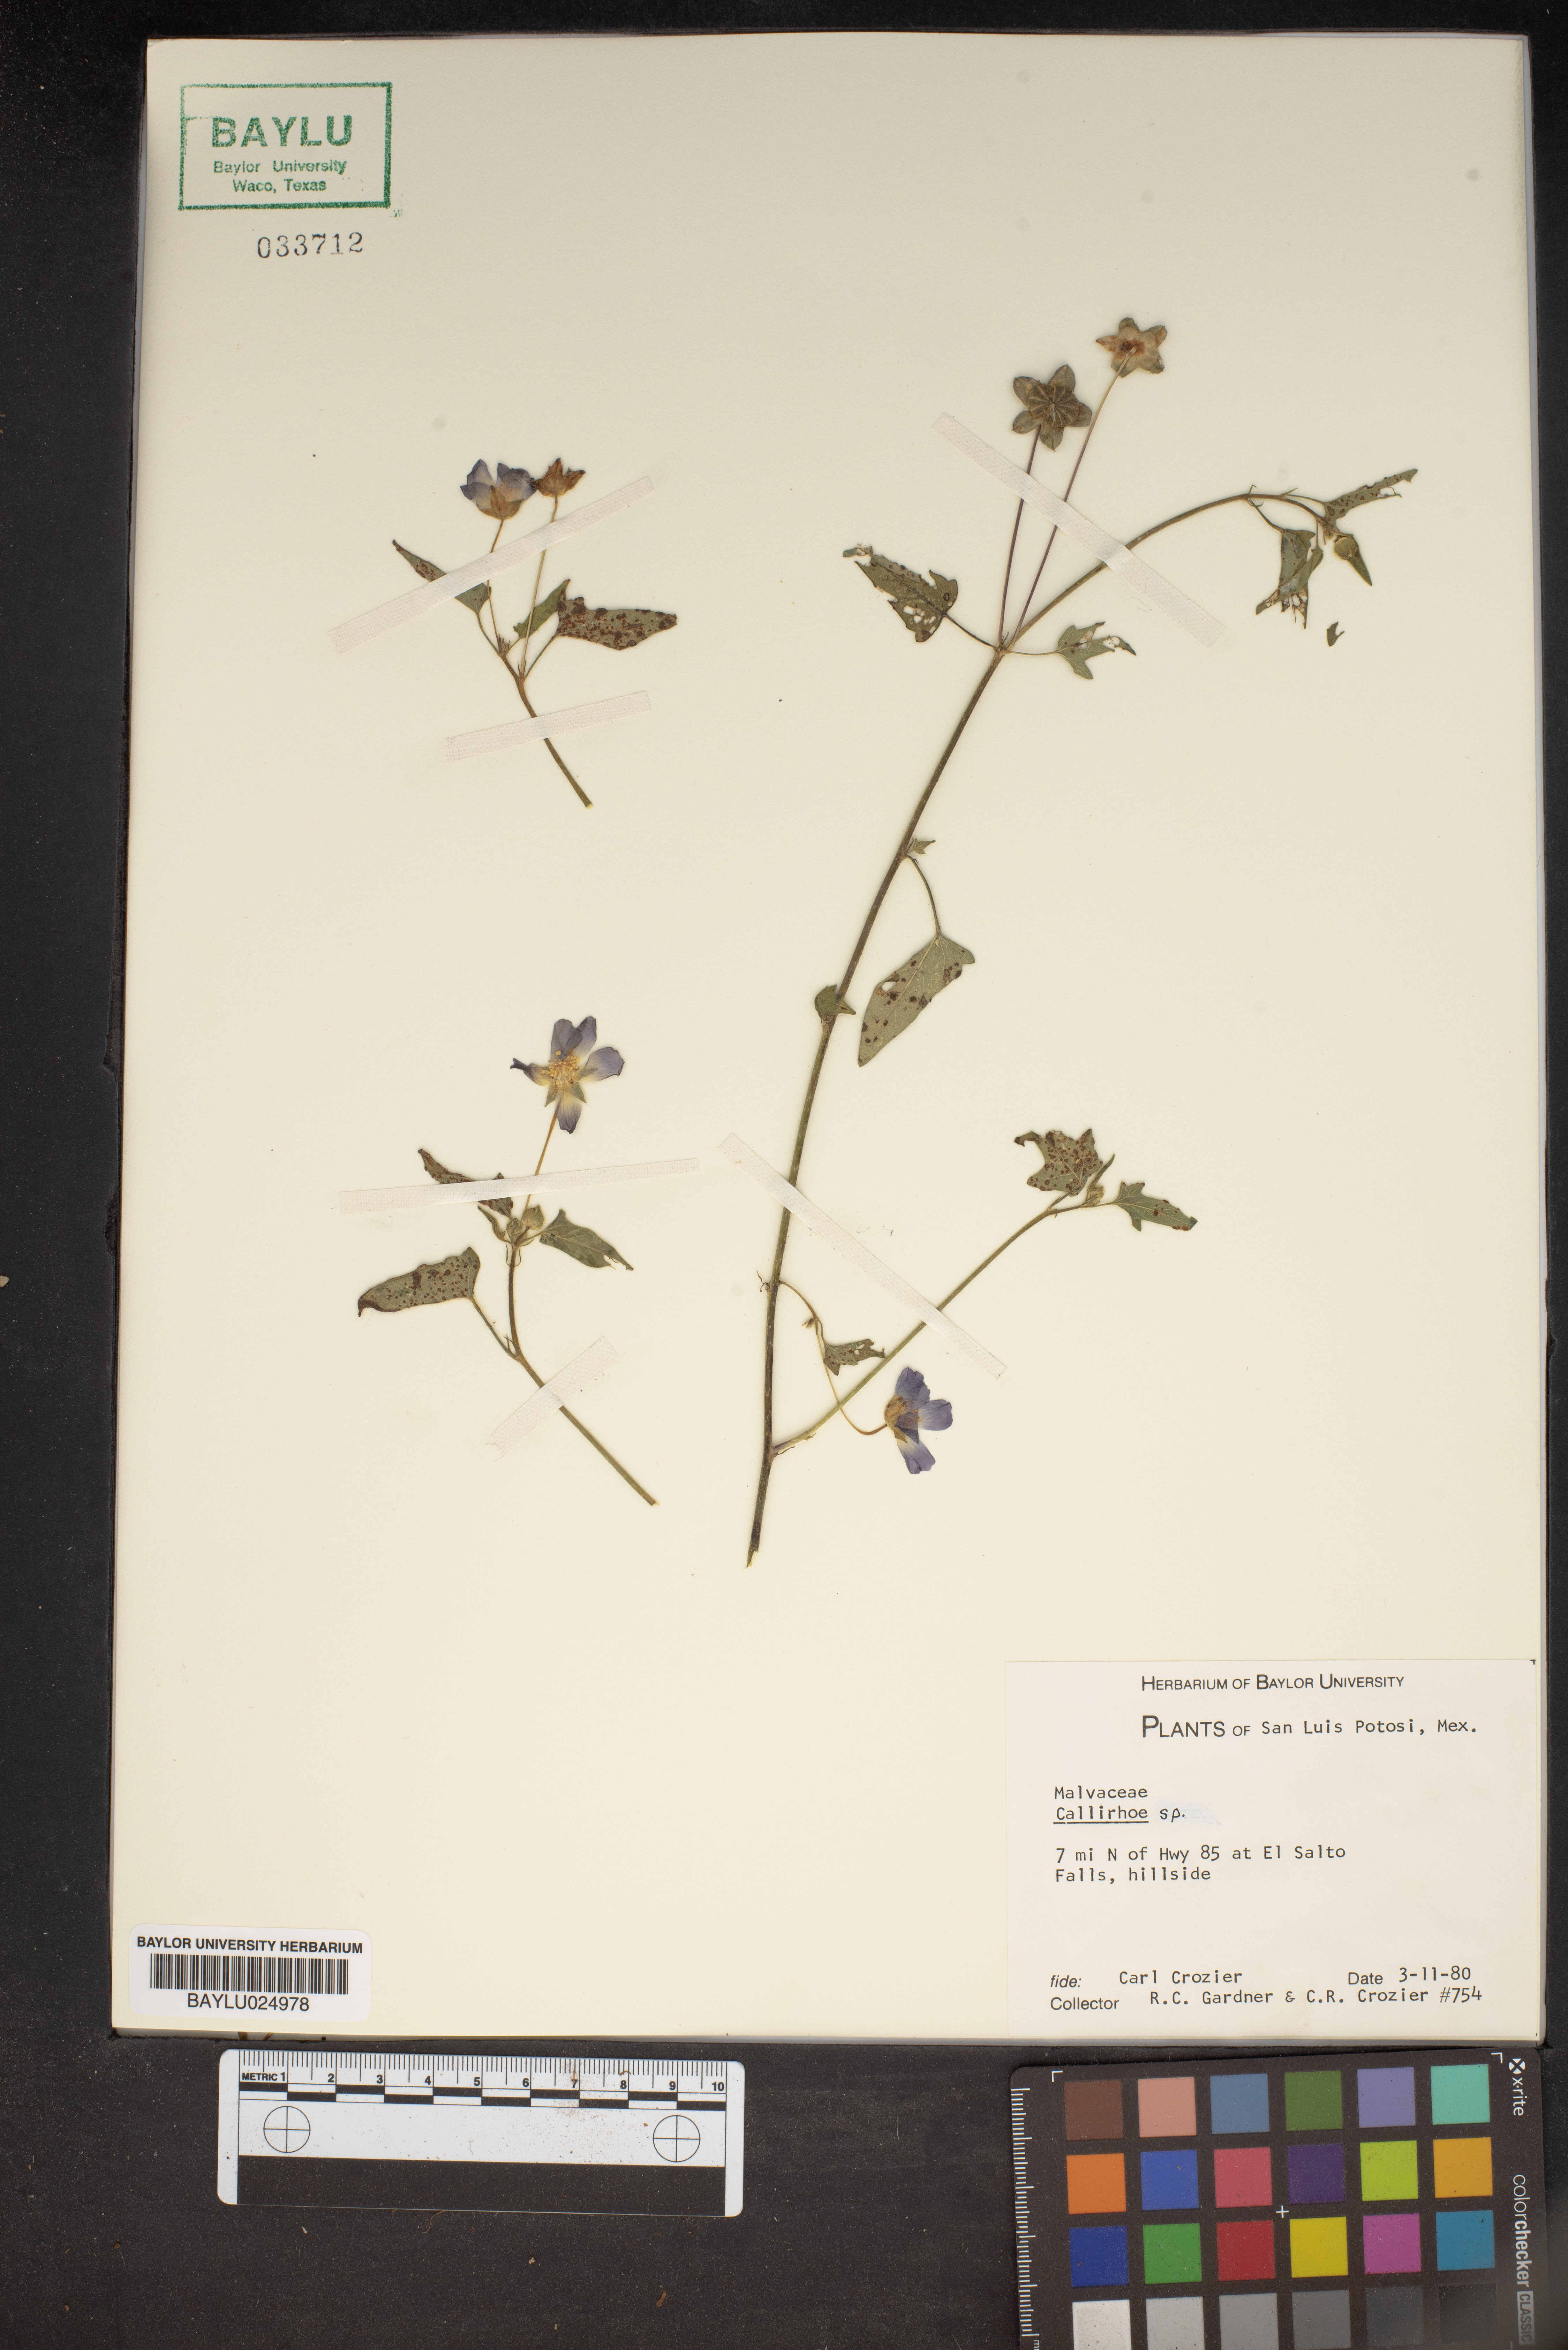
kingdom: Plantae
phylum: Tracheophyta
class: Magnoliopsida
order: Malvales
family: Malvaceae
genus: Callirhoe
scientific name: Callirhoe
